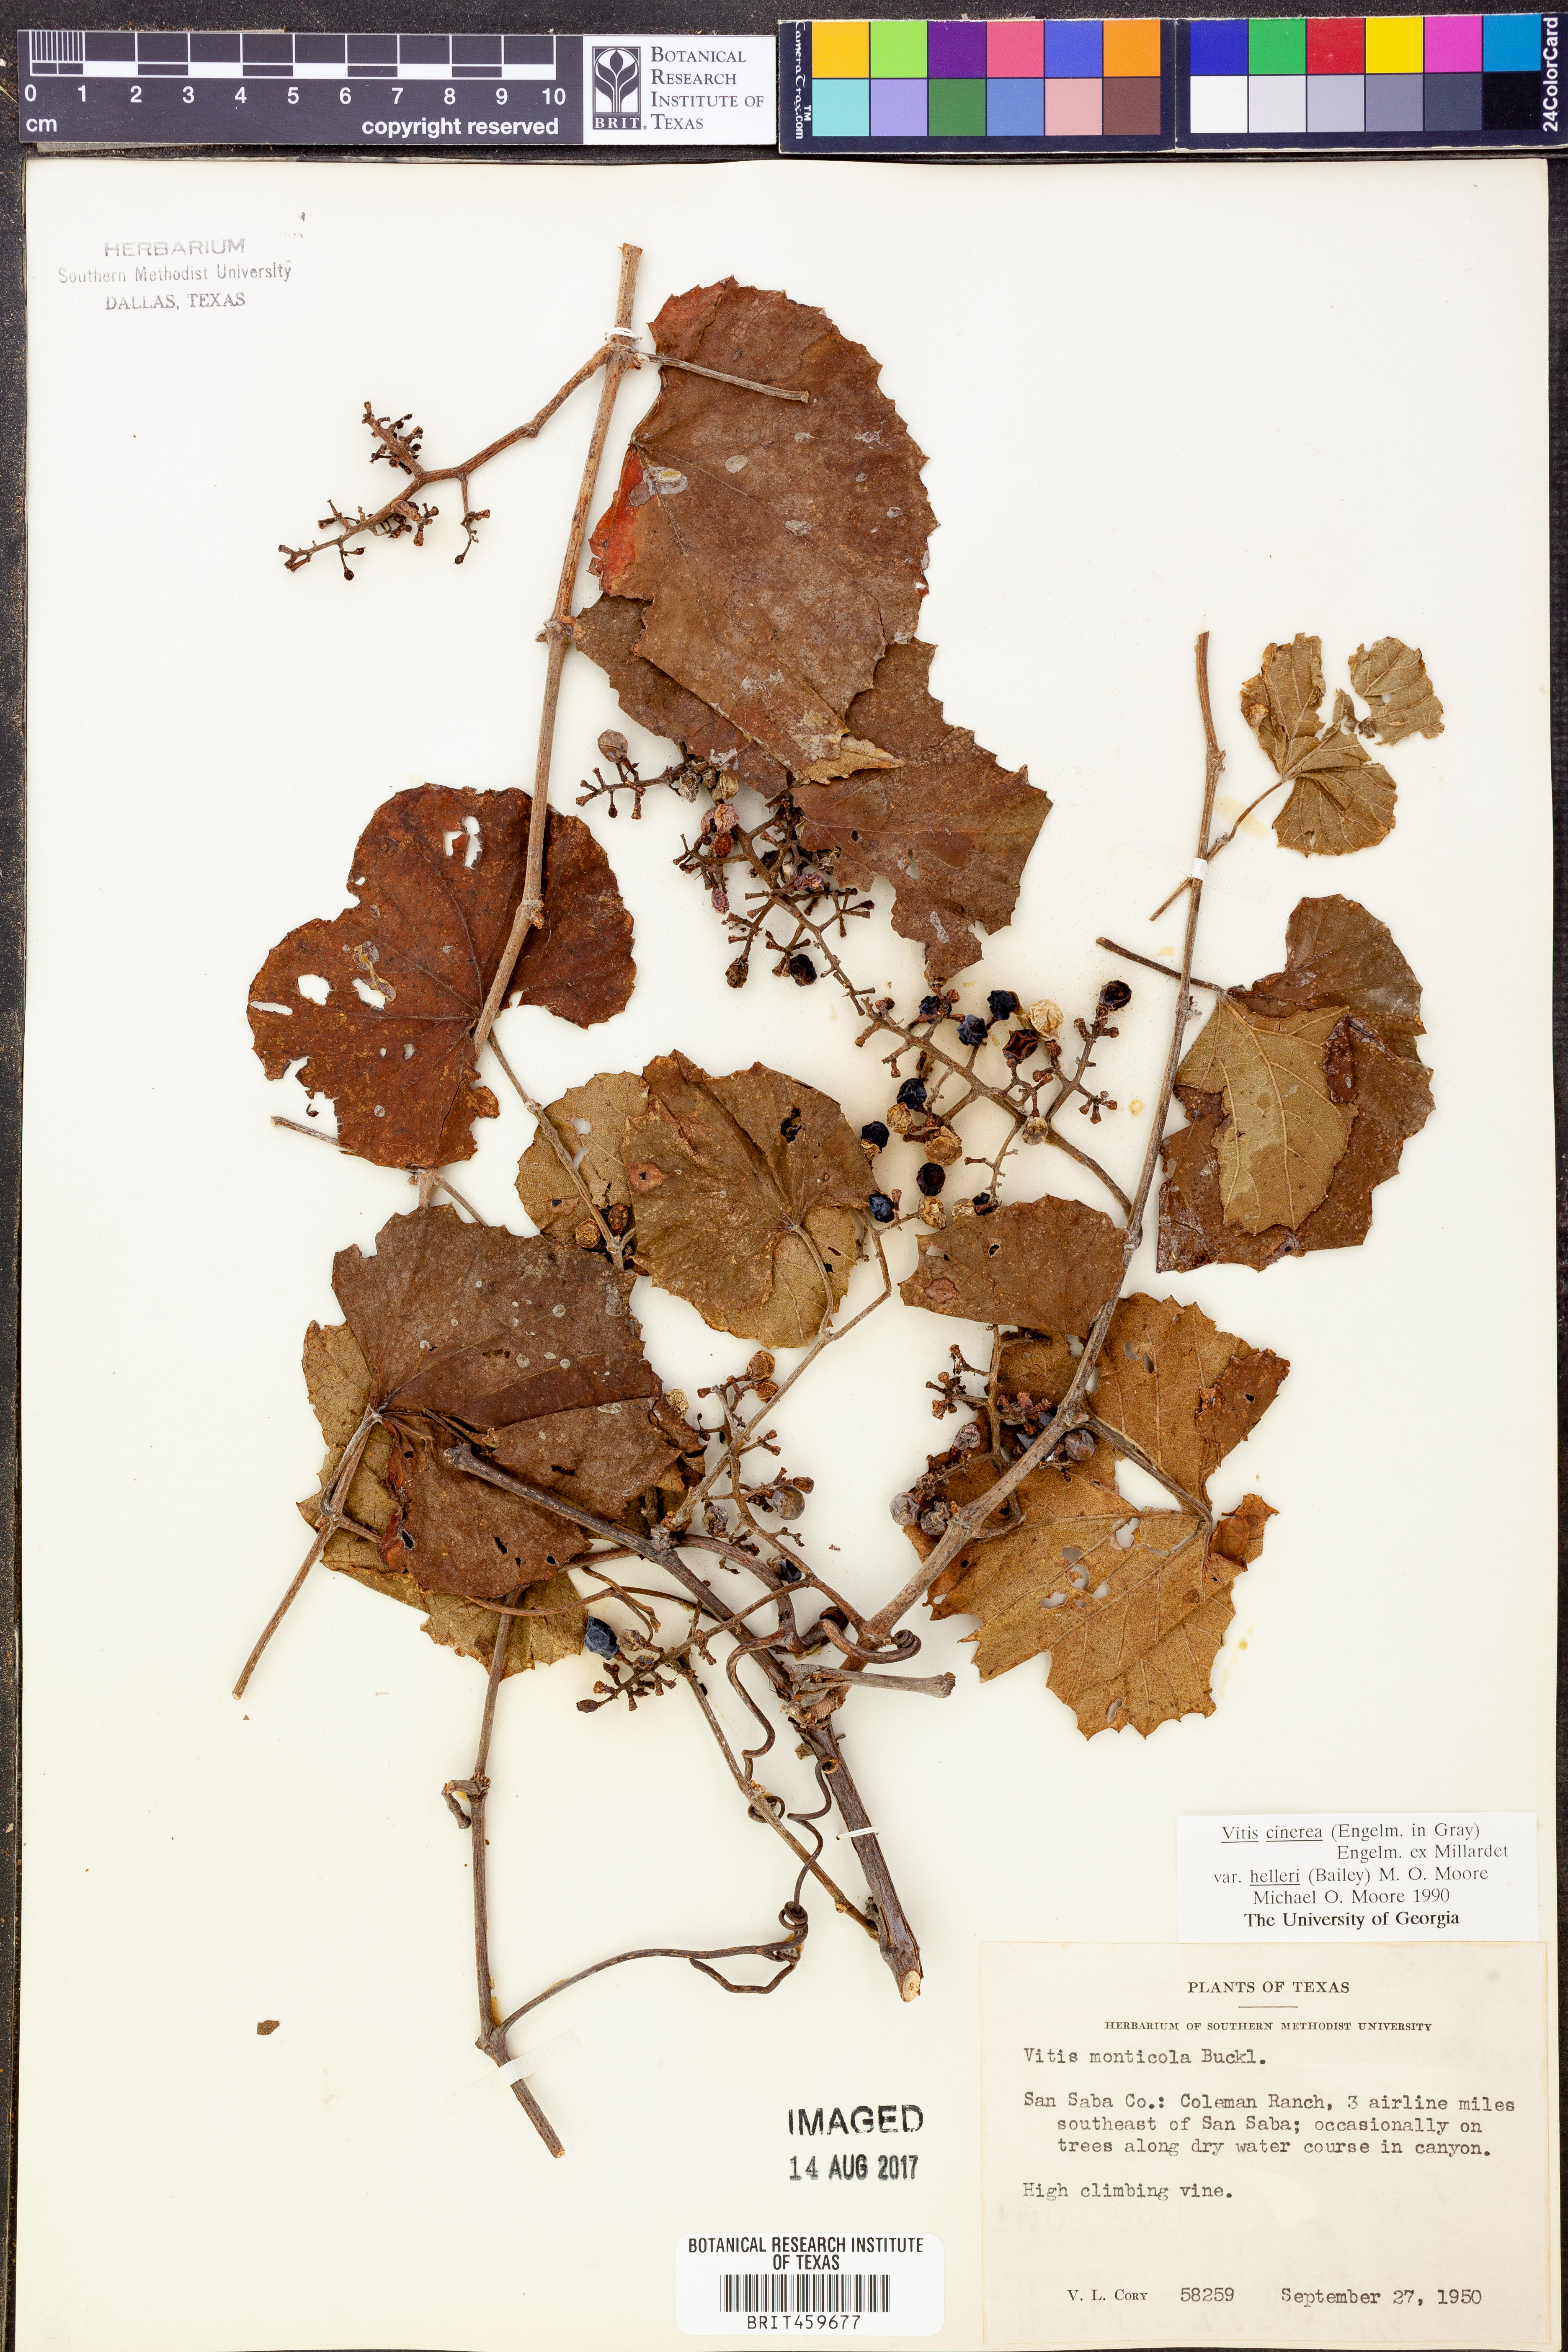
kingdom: Plantae
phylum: Tracheophyta
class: Magnoliopsida
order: Vitales
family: Vitaceae
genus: Vitis
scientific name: Vitis cinerea
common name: Ashy grape
